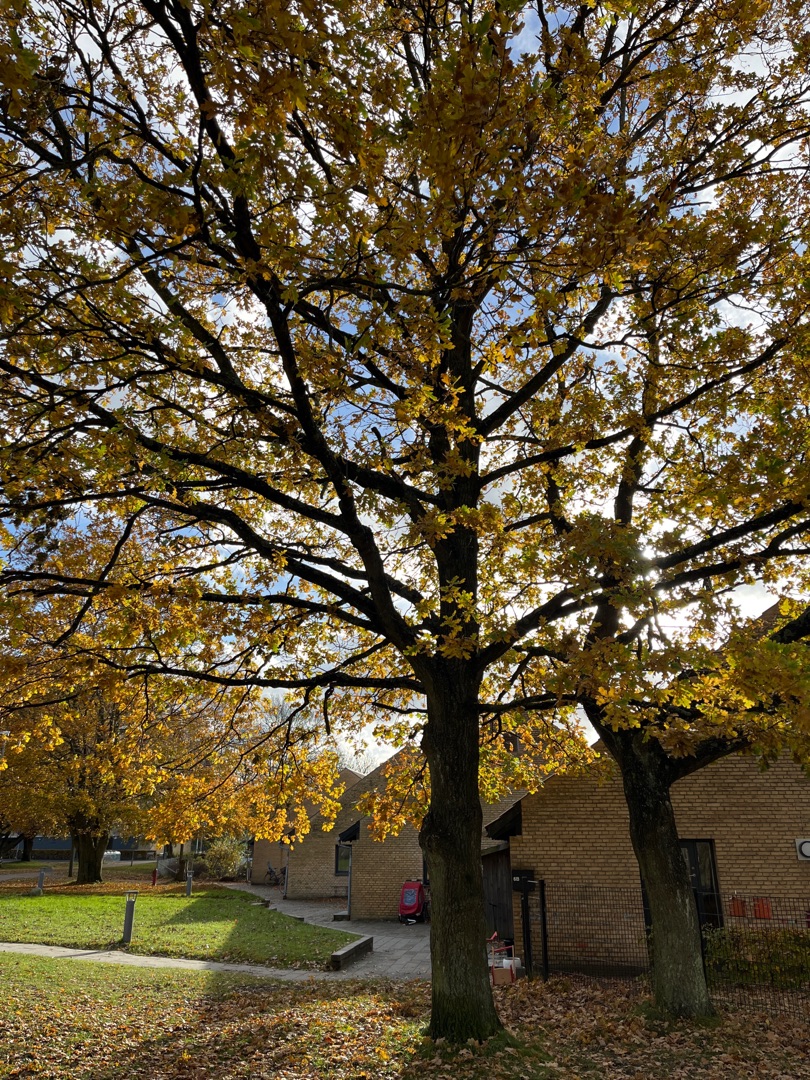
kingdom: Plantae
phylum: Tracheophyta
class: Magnoliopsida
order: Fagales
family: Fagaceae
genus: Quercus
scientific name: Quercus robur
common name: Stilk-eg/almindelig eg
